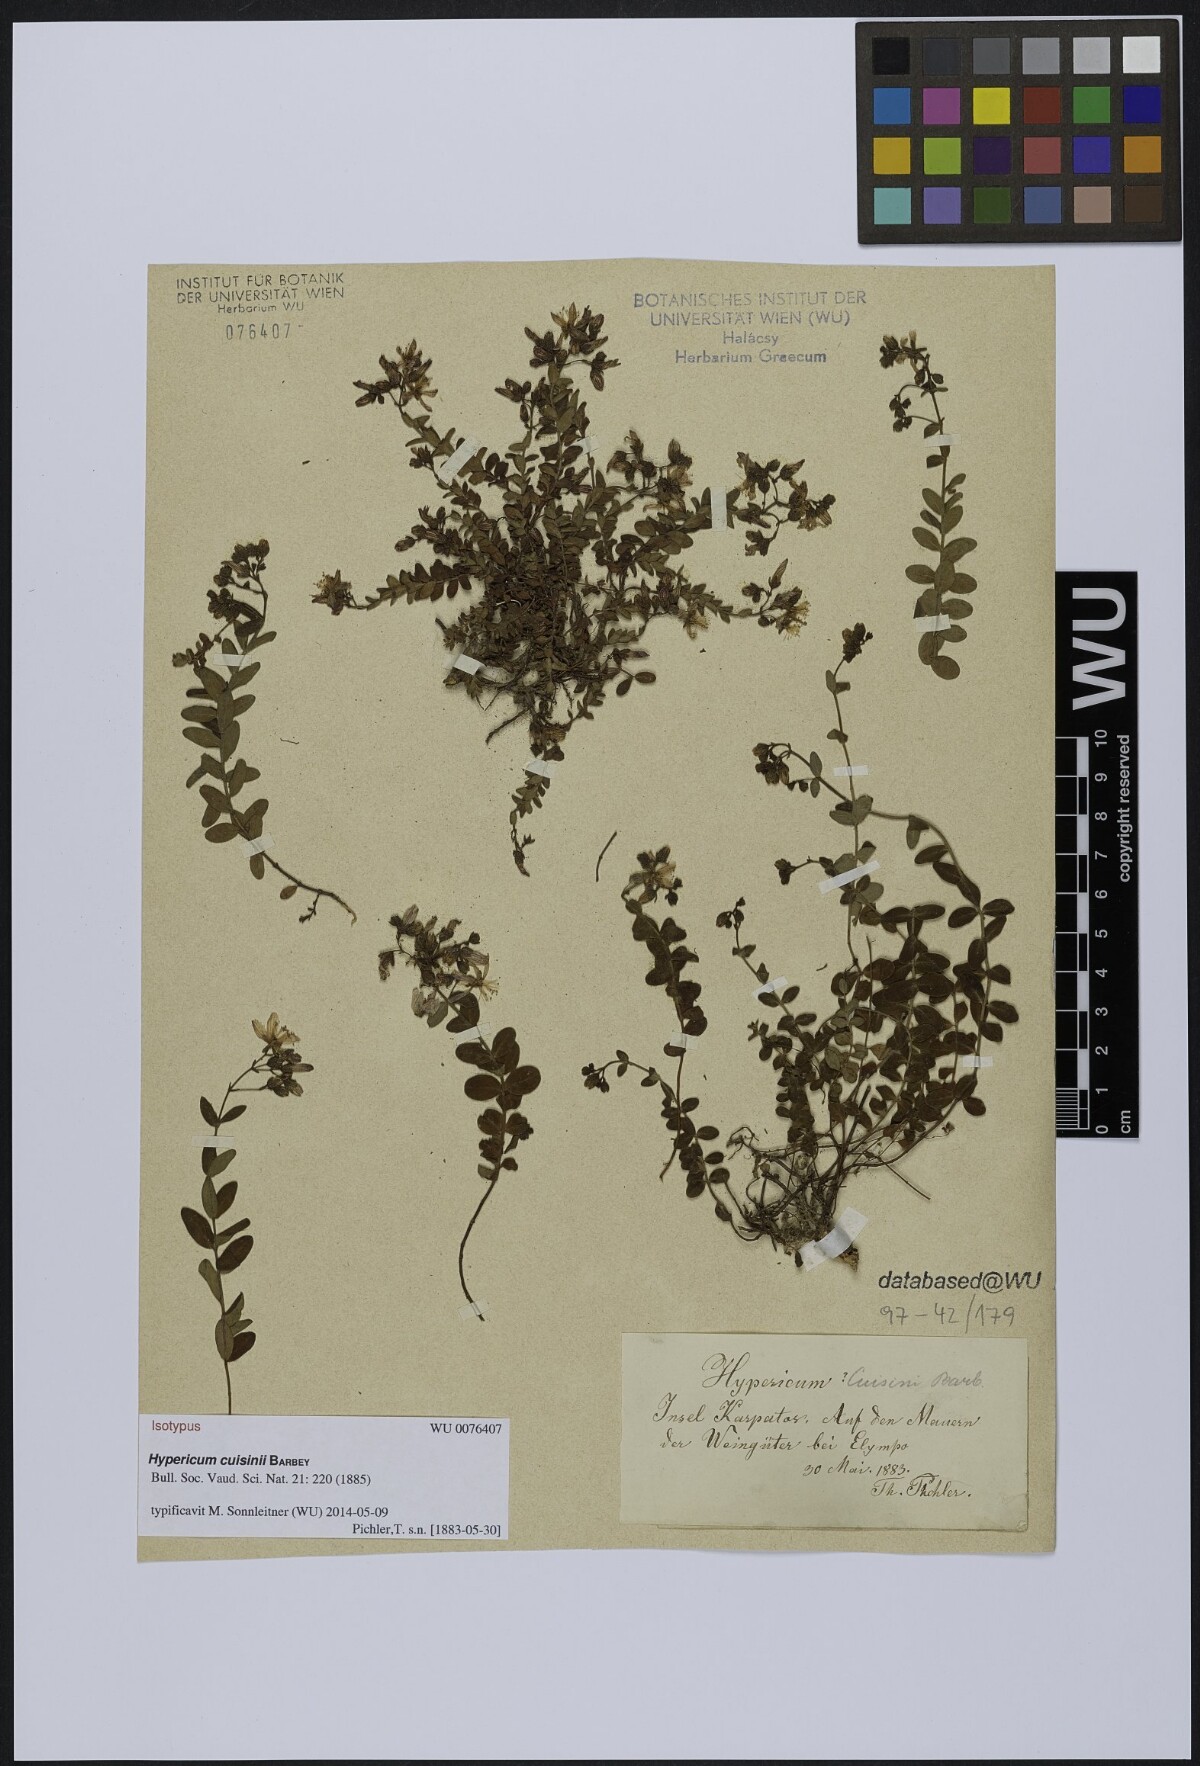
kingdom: Plantae
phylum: Tracheophyta
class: Magnoliopsida
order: Malpighiales
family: Hypericaceae
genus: Hypericum
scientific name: Hypericum cuisinii
